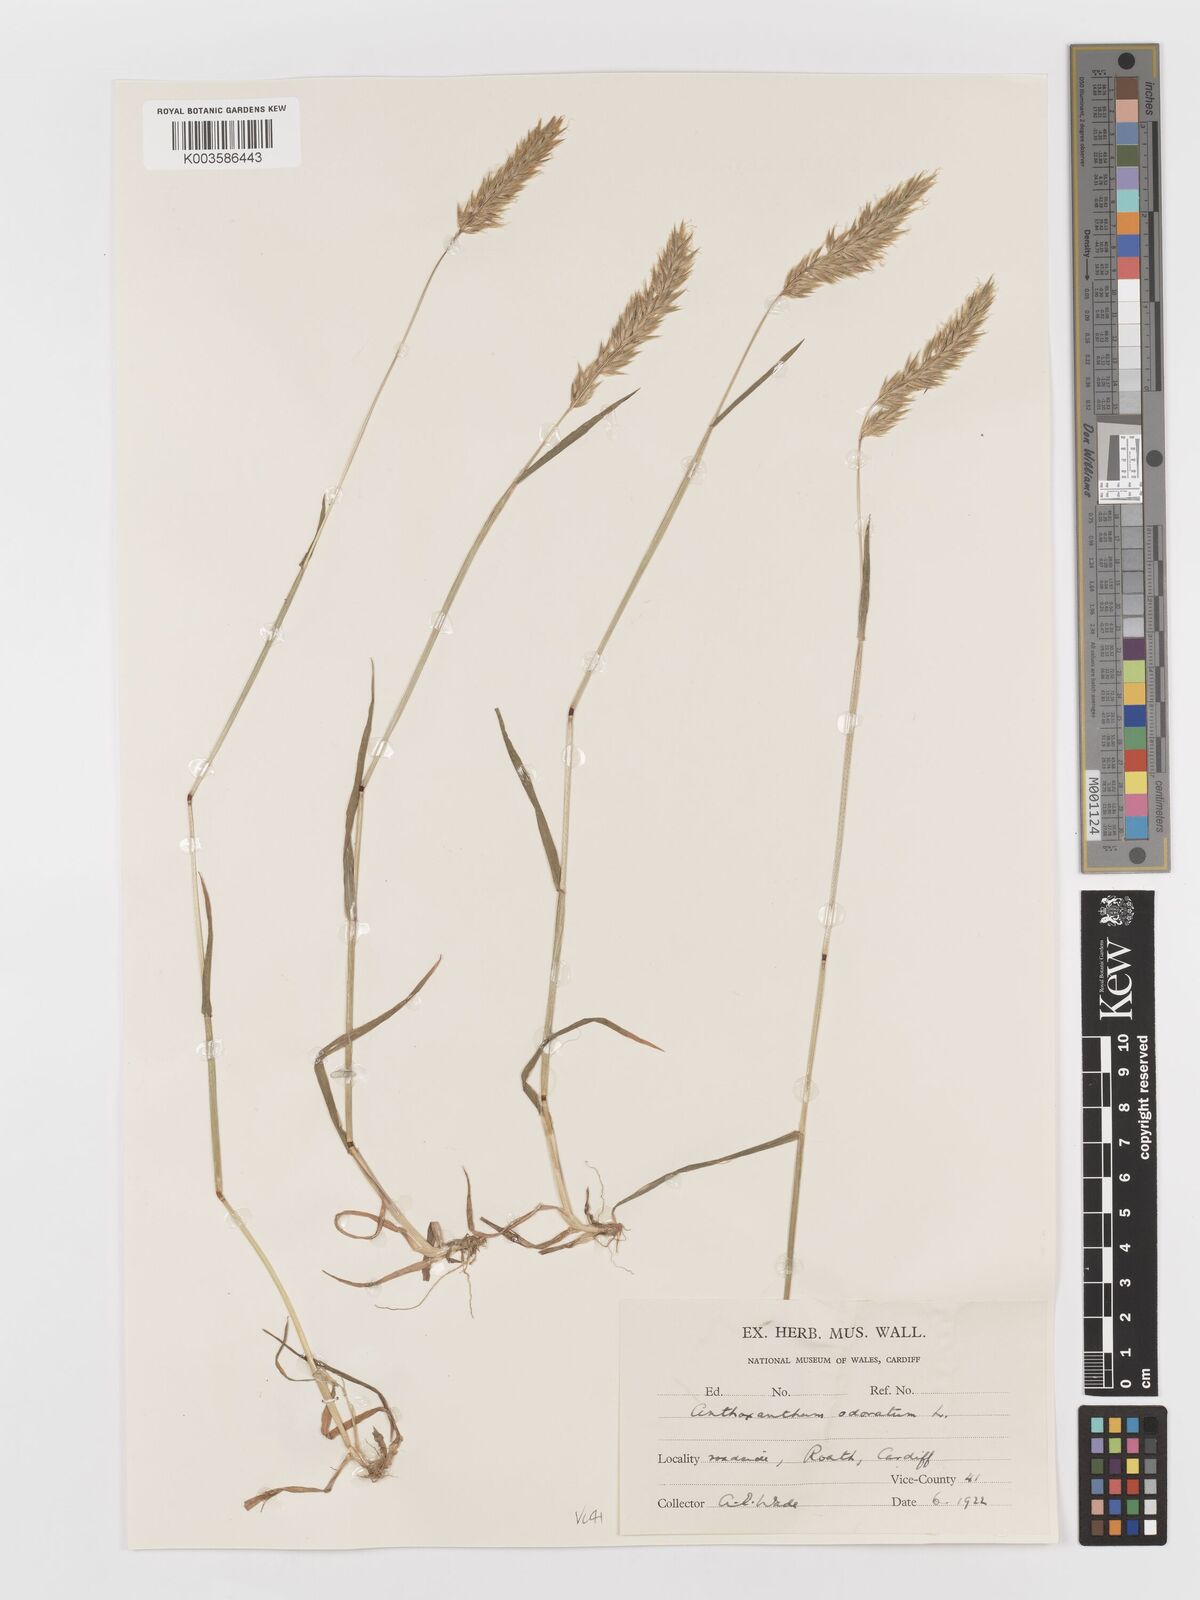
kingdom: Plantae
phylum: Tracheophyta
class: Liliopsida
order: Poales
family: Poaceae
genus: Anthoxanthum
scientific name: Anthoxanthum odoratum
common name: Sweet vernalgrass
